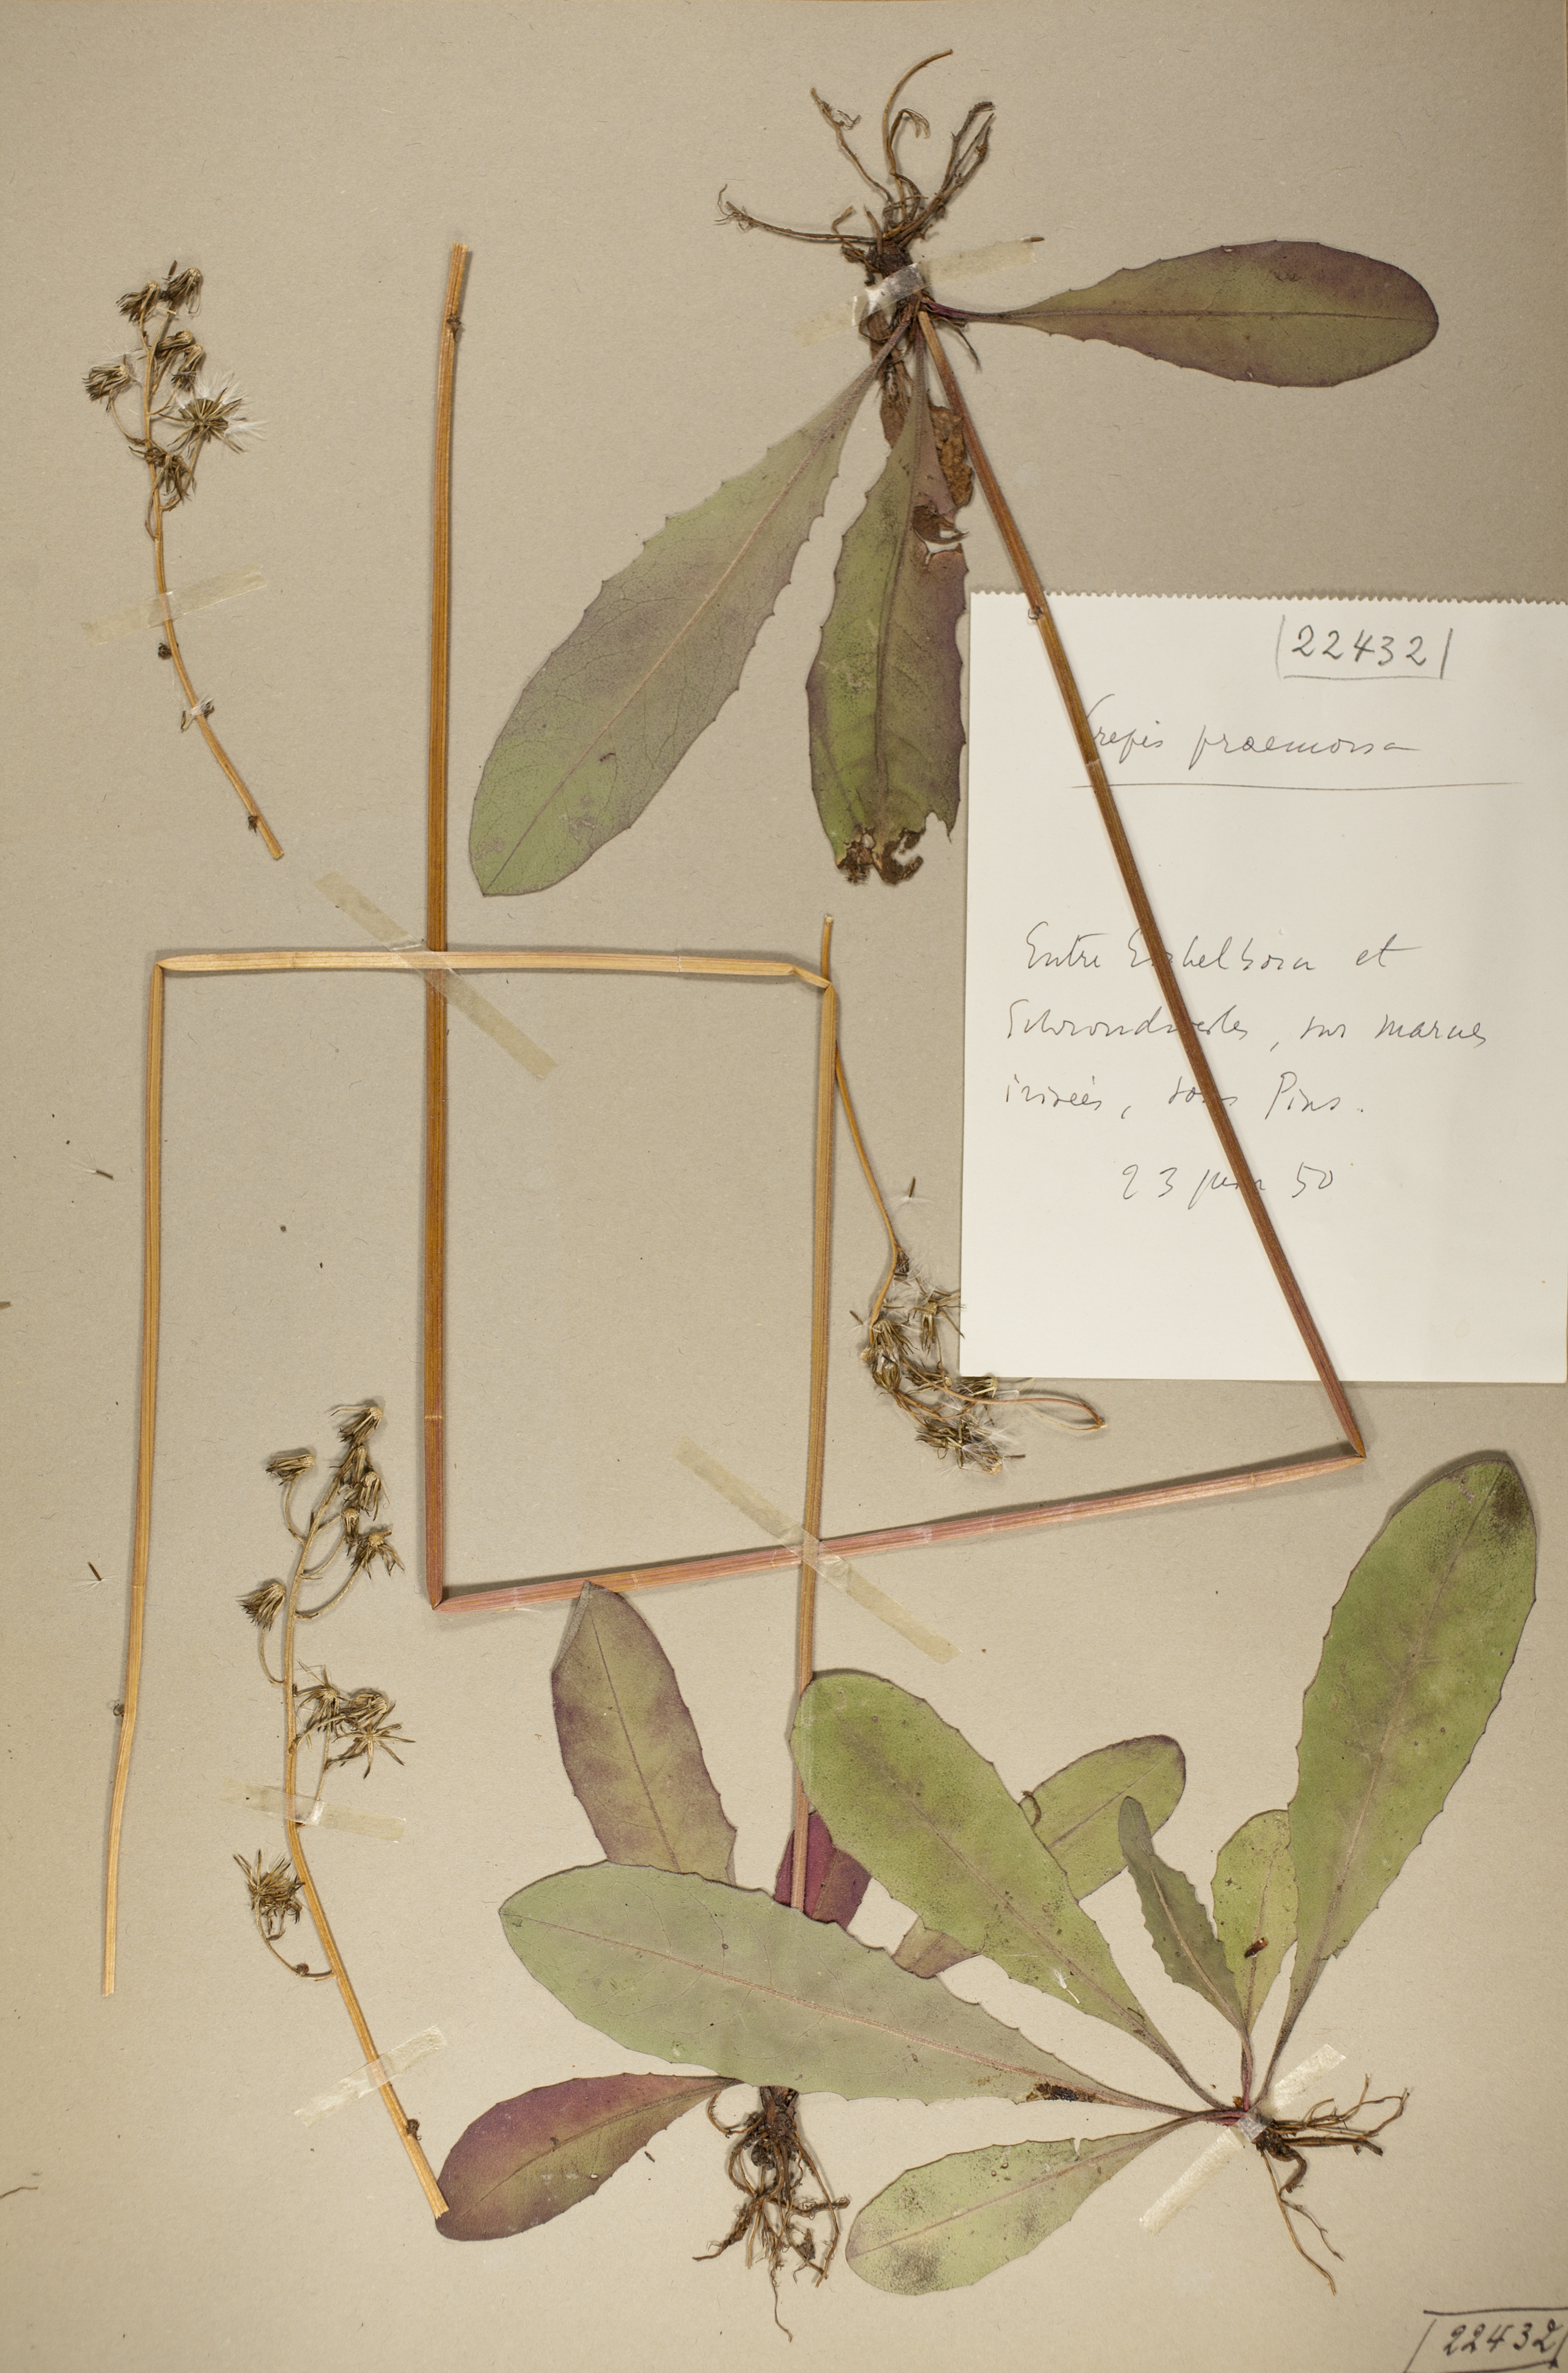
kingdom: Plantae
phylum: Tracheophyta
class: Magnoliopsida
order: Asterales
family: Asteraceae
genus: Crepis
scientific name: Crepis praemorsa
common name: Leafless hawk's-beard
